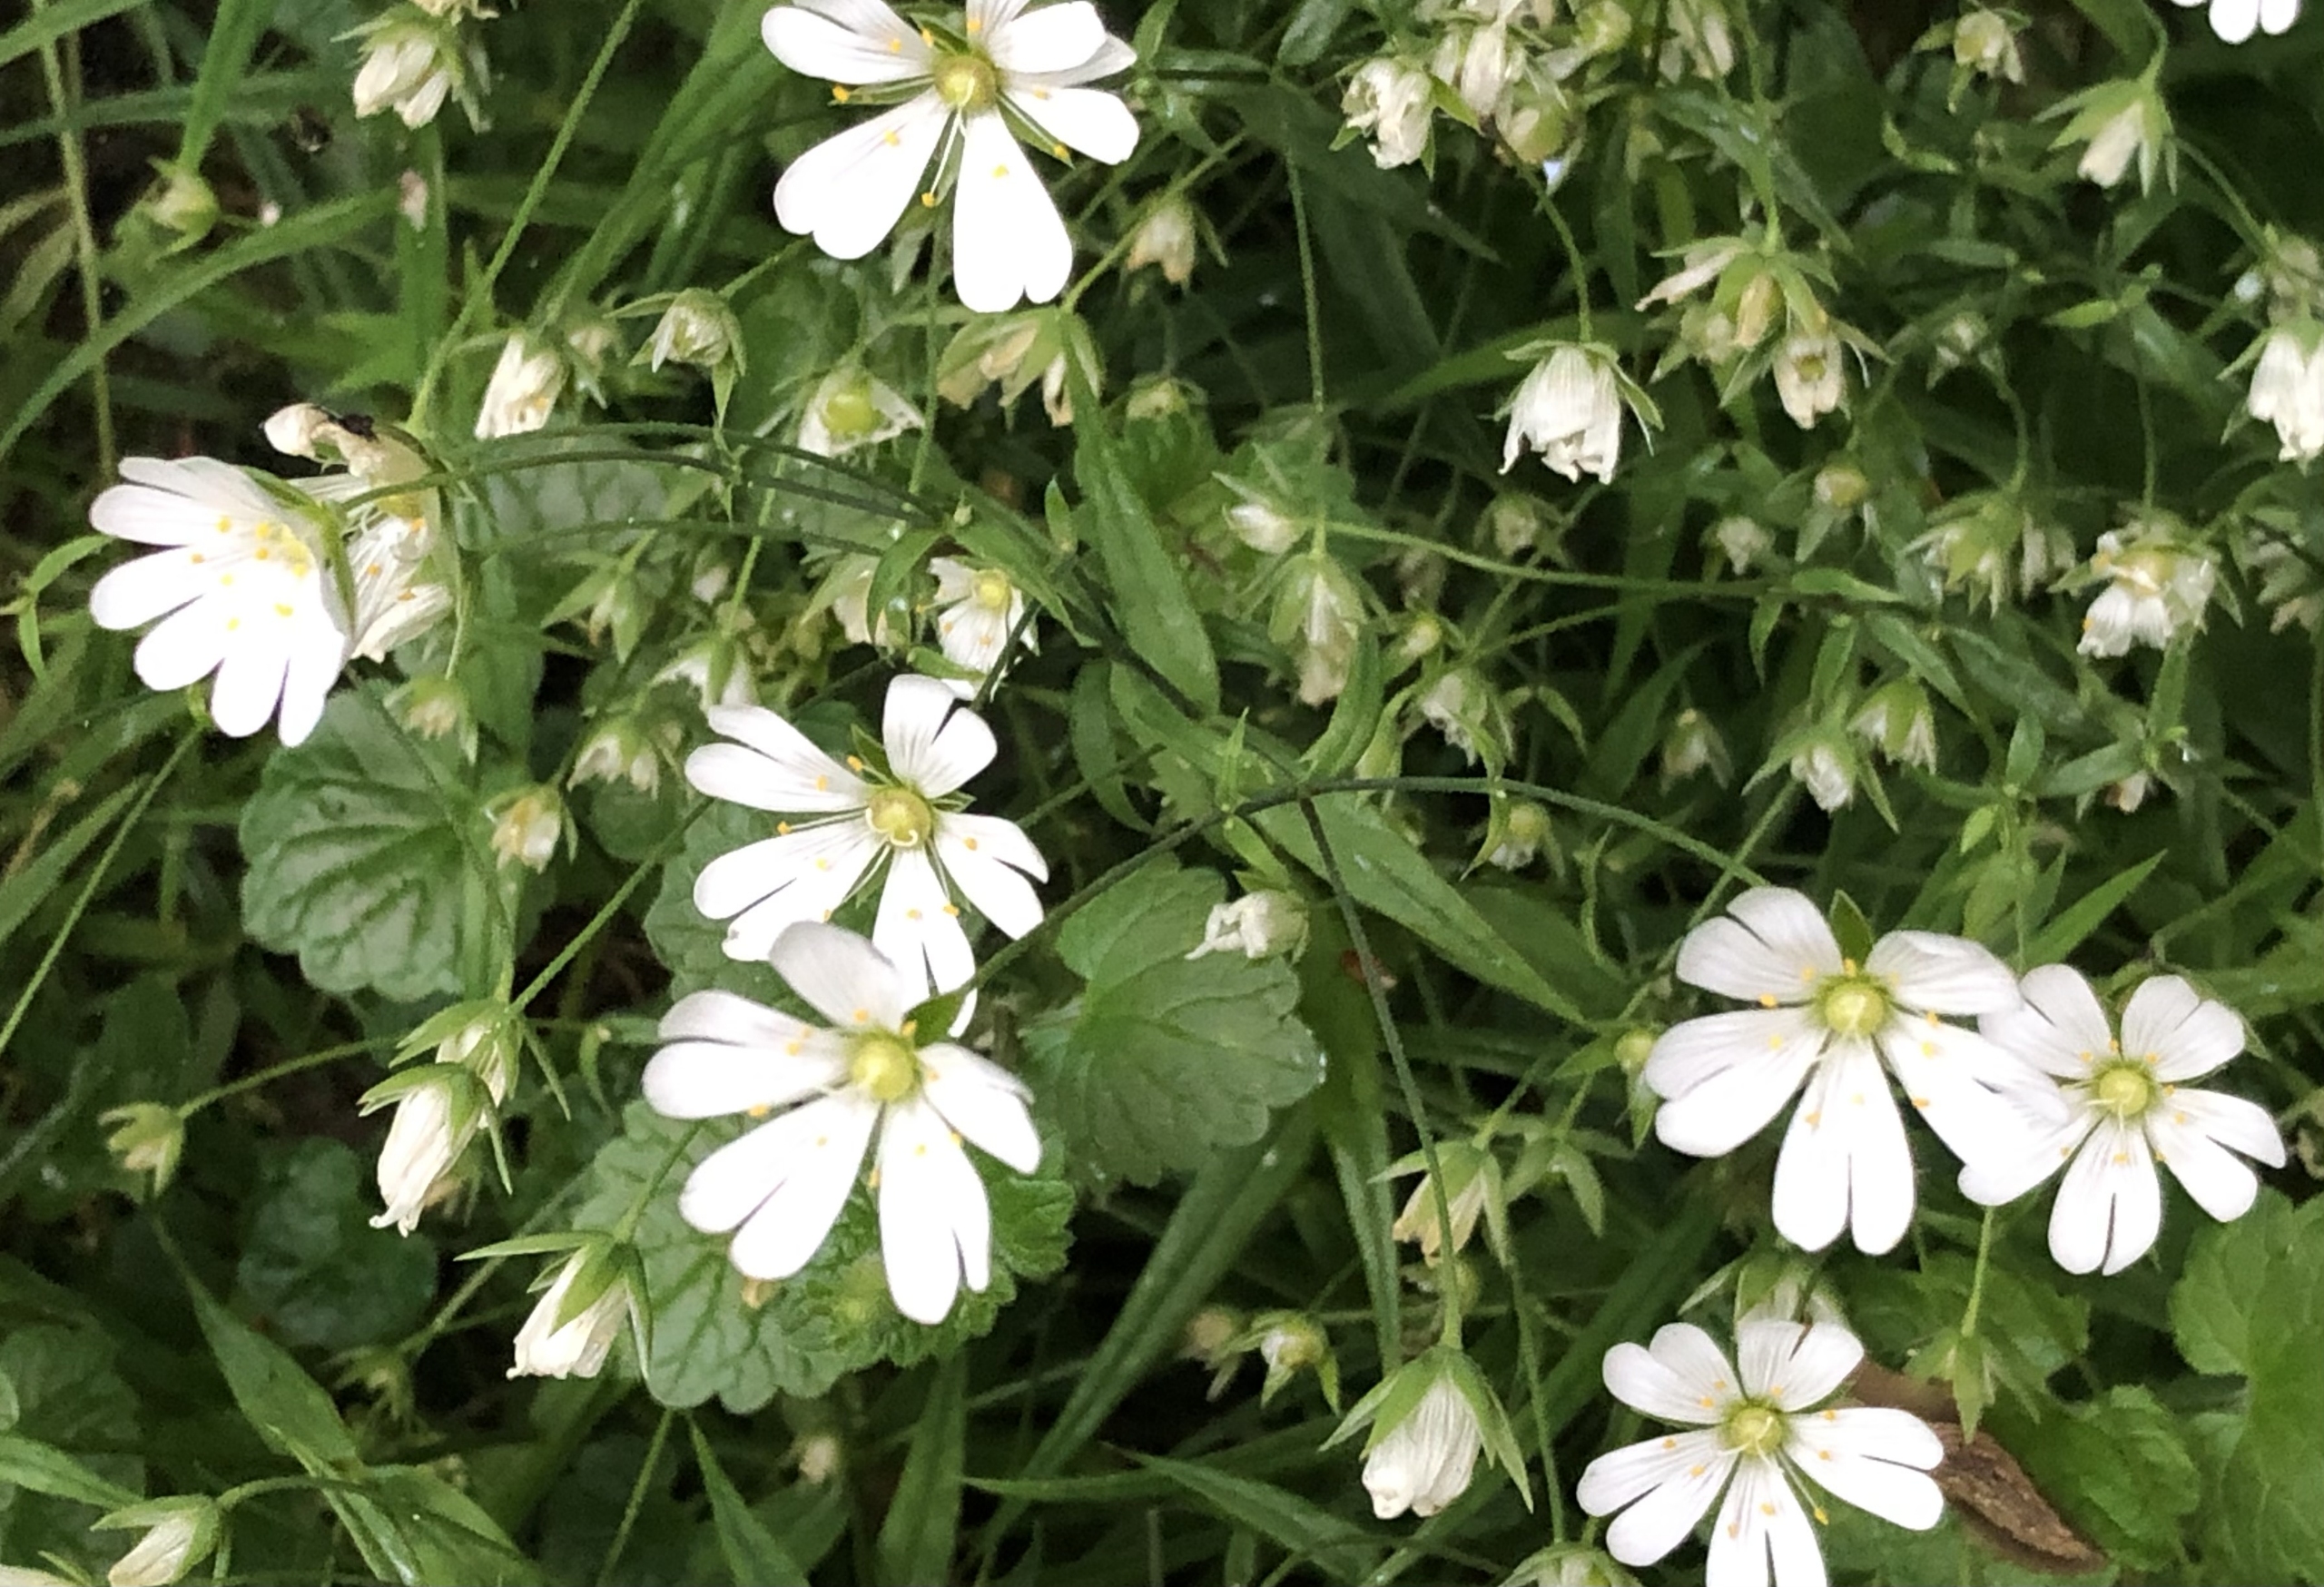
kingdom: Plantae
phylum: Tracheophyta
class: Magnoliopsida
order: Caryophyllales
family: Caryophyllaceae
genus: Rabelera
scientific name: Rabelera holostea
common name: Stor fladstjerne
